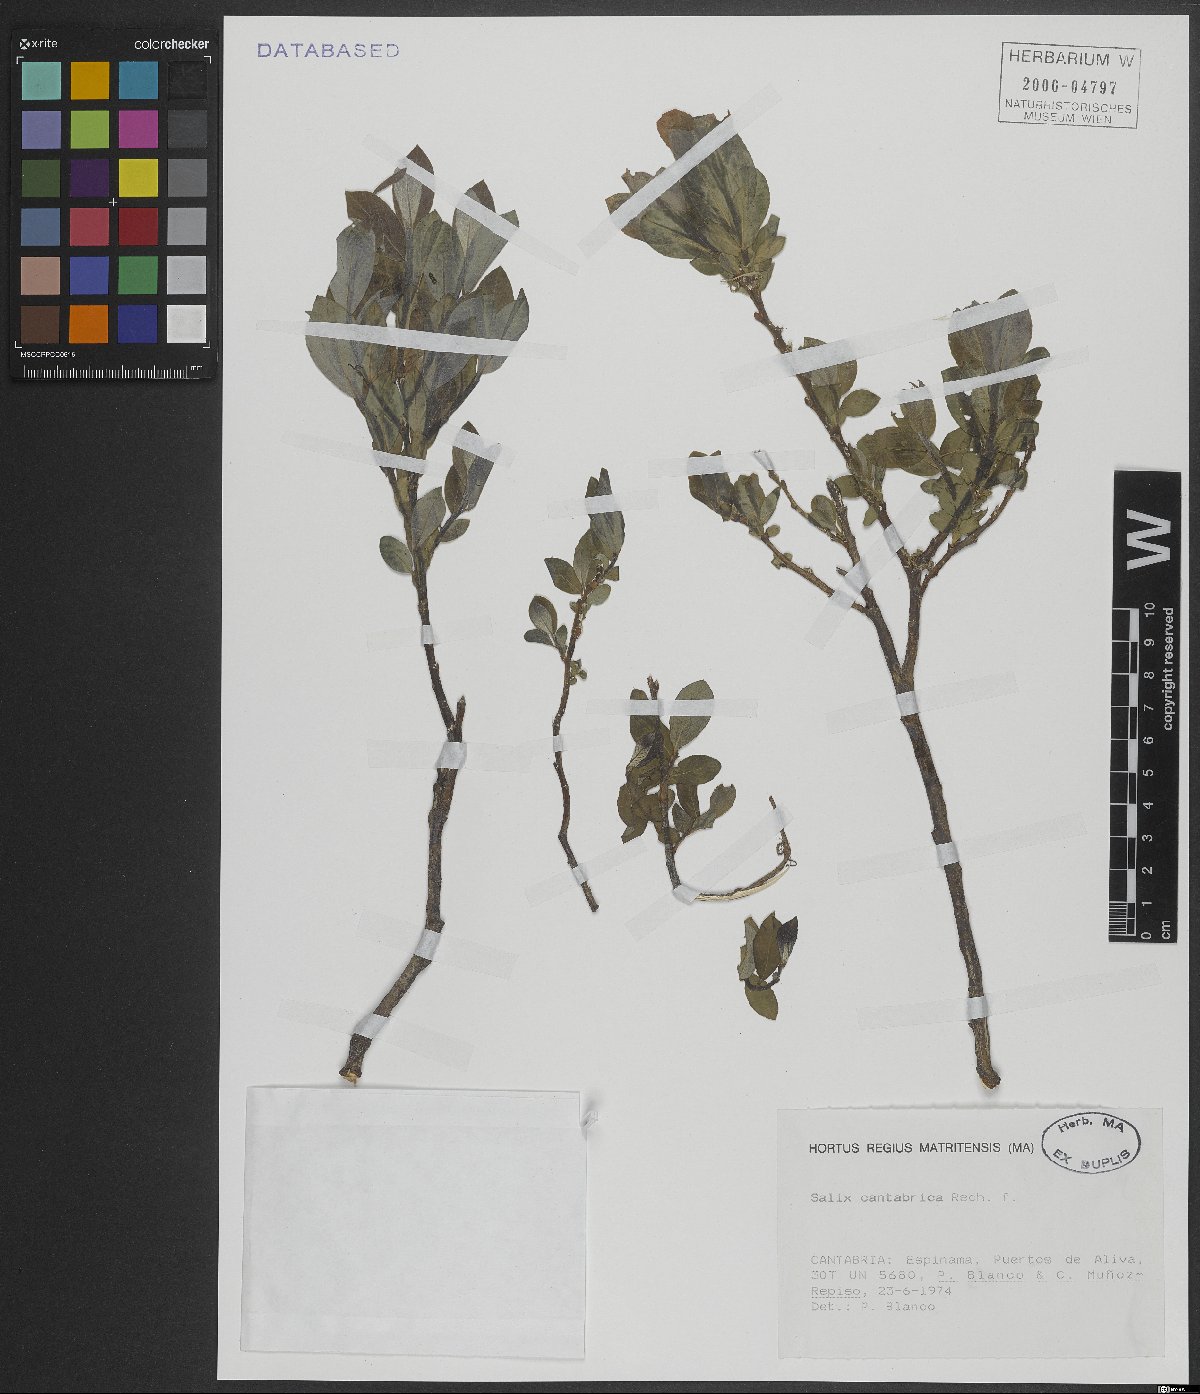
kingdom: Plantae
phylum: Tracheophyta
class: Magnoliopsida
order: Malpighiales
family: Salicaceae
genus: Salix
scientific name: Salix cantabrica
